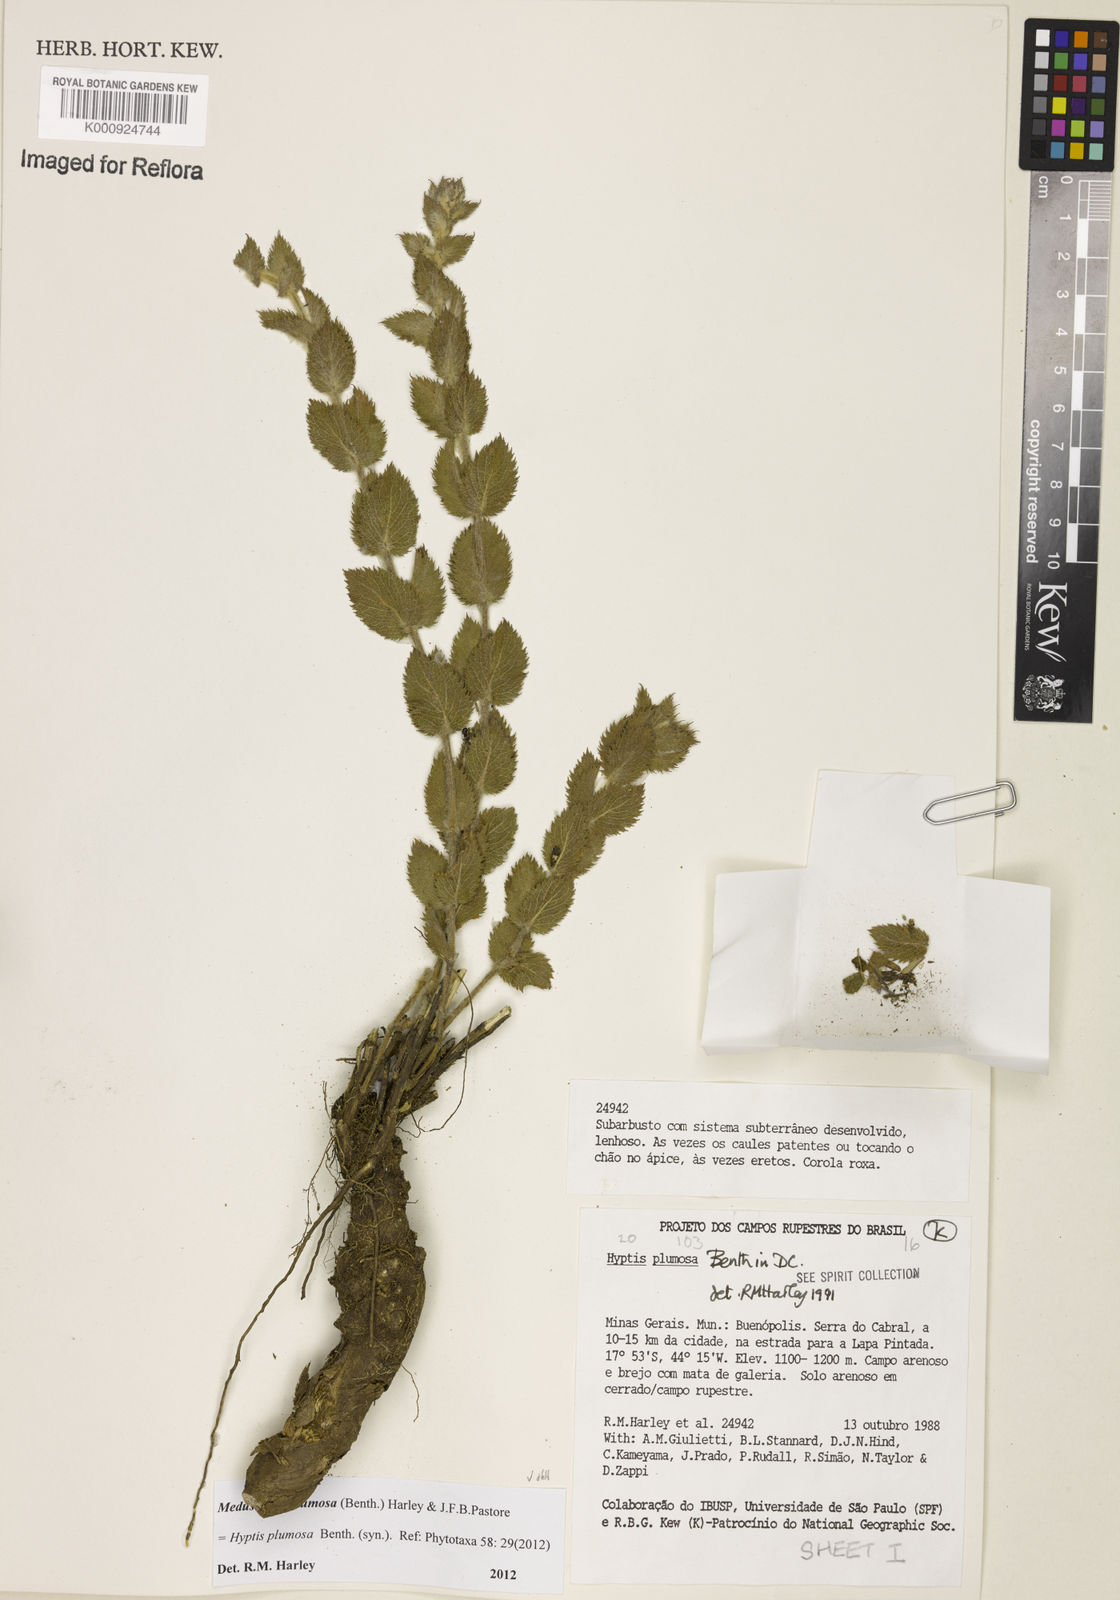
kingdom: Plantae
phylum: Tracheophyta
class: Magnoliopsida
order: Lamiales
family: Lamiaceae
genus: Medusantha
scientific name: Medusantha plumosa
